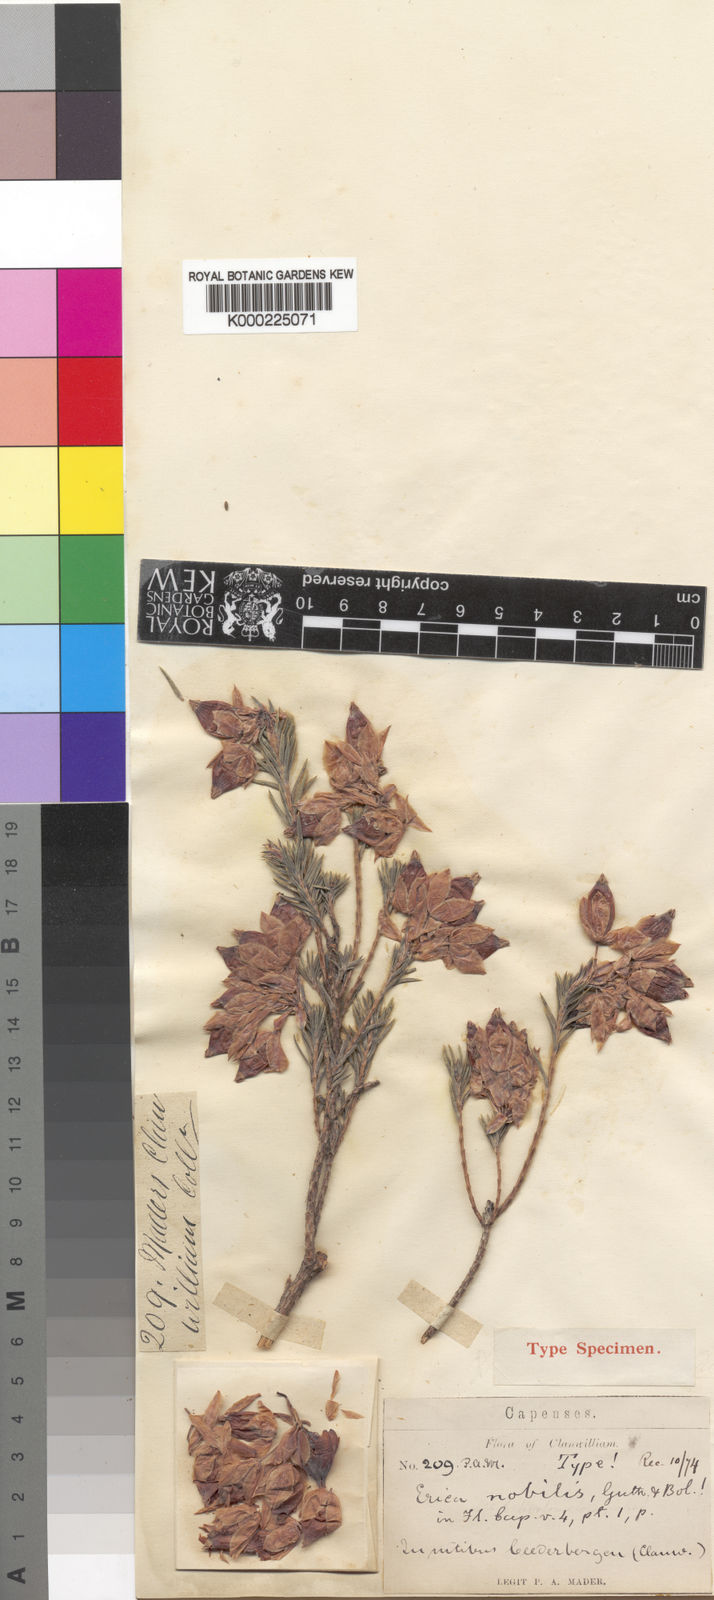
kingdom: Plantae
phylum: Tracheophyta
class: Magnoliopsida
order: Ericales
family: Ericaceae
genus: Erica
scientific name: Erica eugenea
